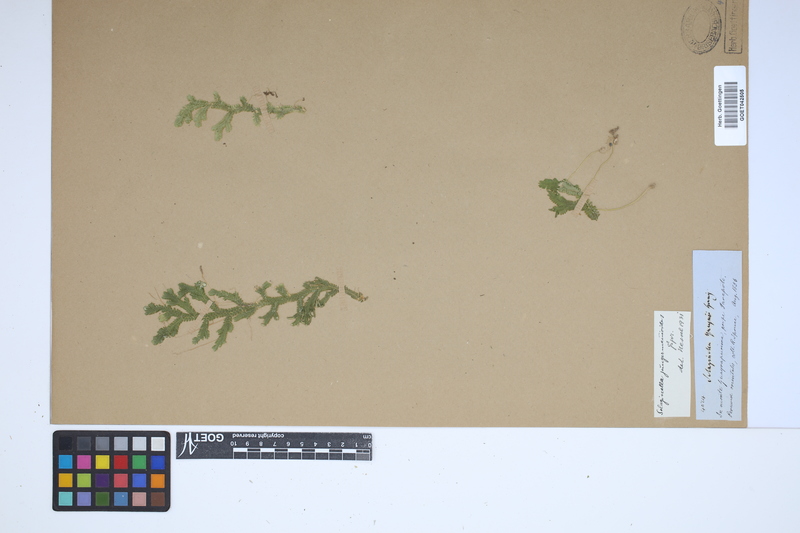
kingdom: Plantae
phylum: Tracheophyta
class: Lycopodiopsida
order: Selaginellales
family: Selaginellaceae
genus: Selaginella
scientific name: Selaginella jungermannioides
